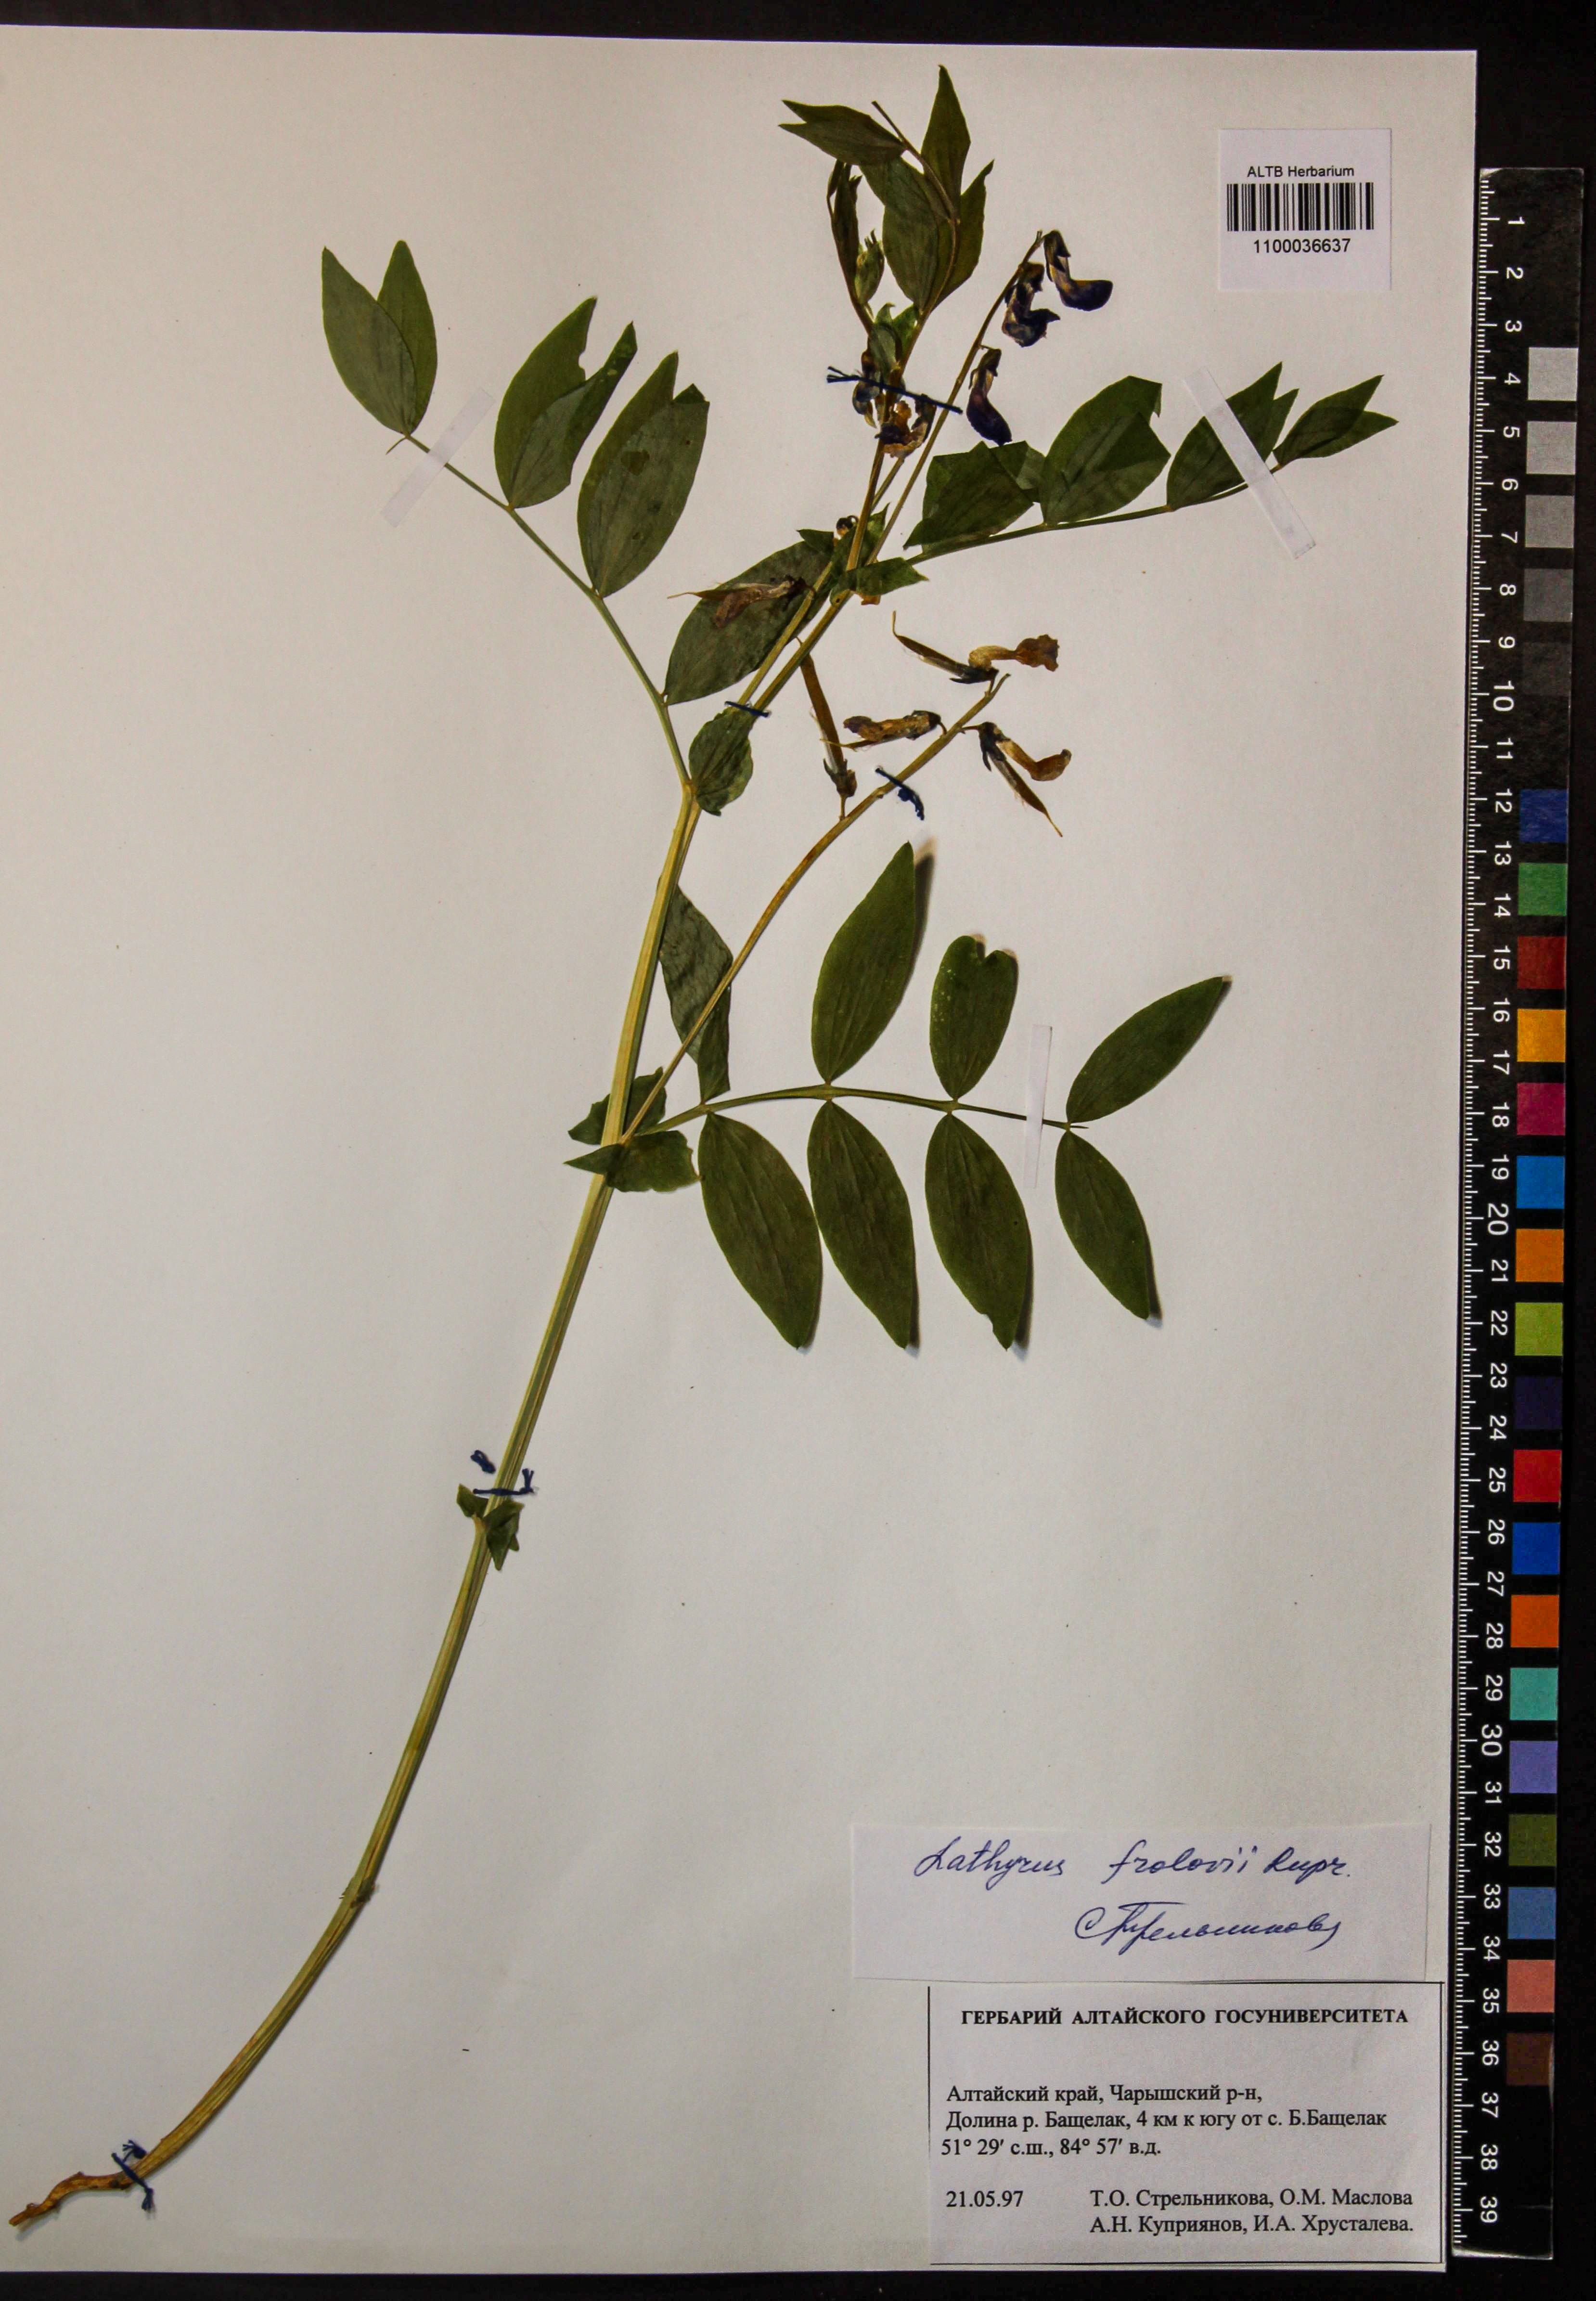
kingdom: Plantae
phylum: Tracheophyta
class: Magnoliopsida
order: Fabales
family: Fabaceae
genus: Lathyrus
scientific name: Lathyrus frolovii
